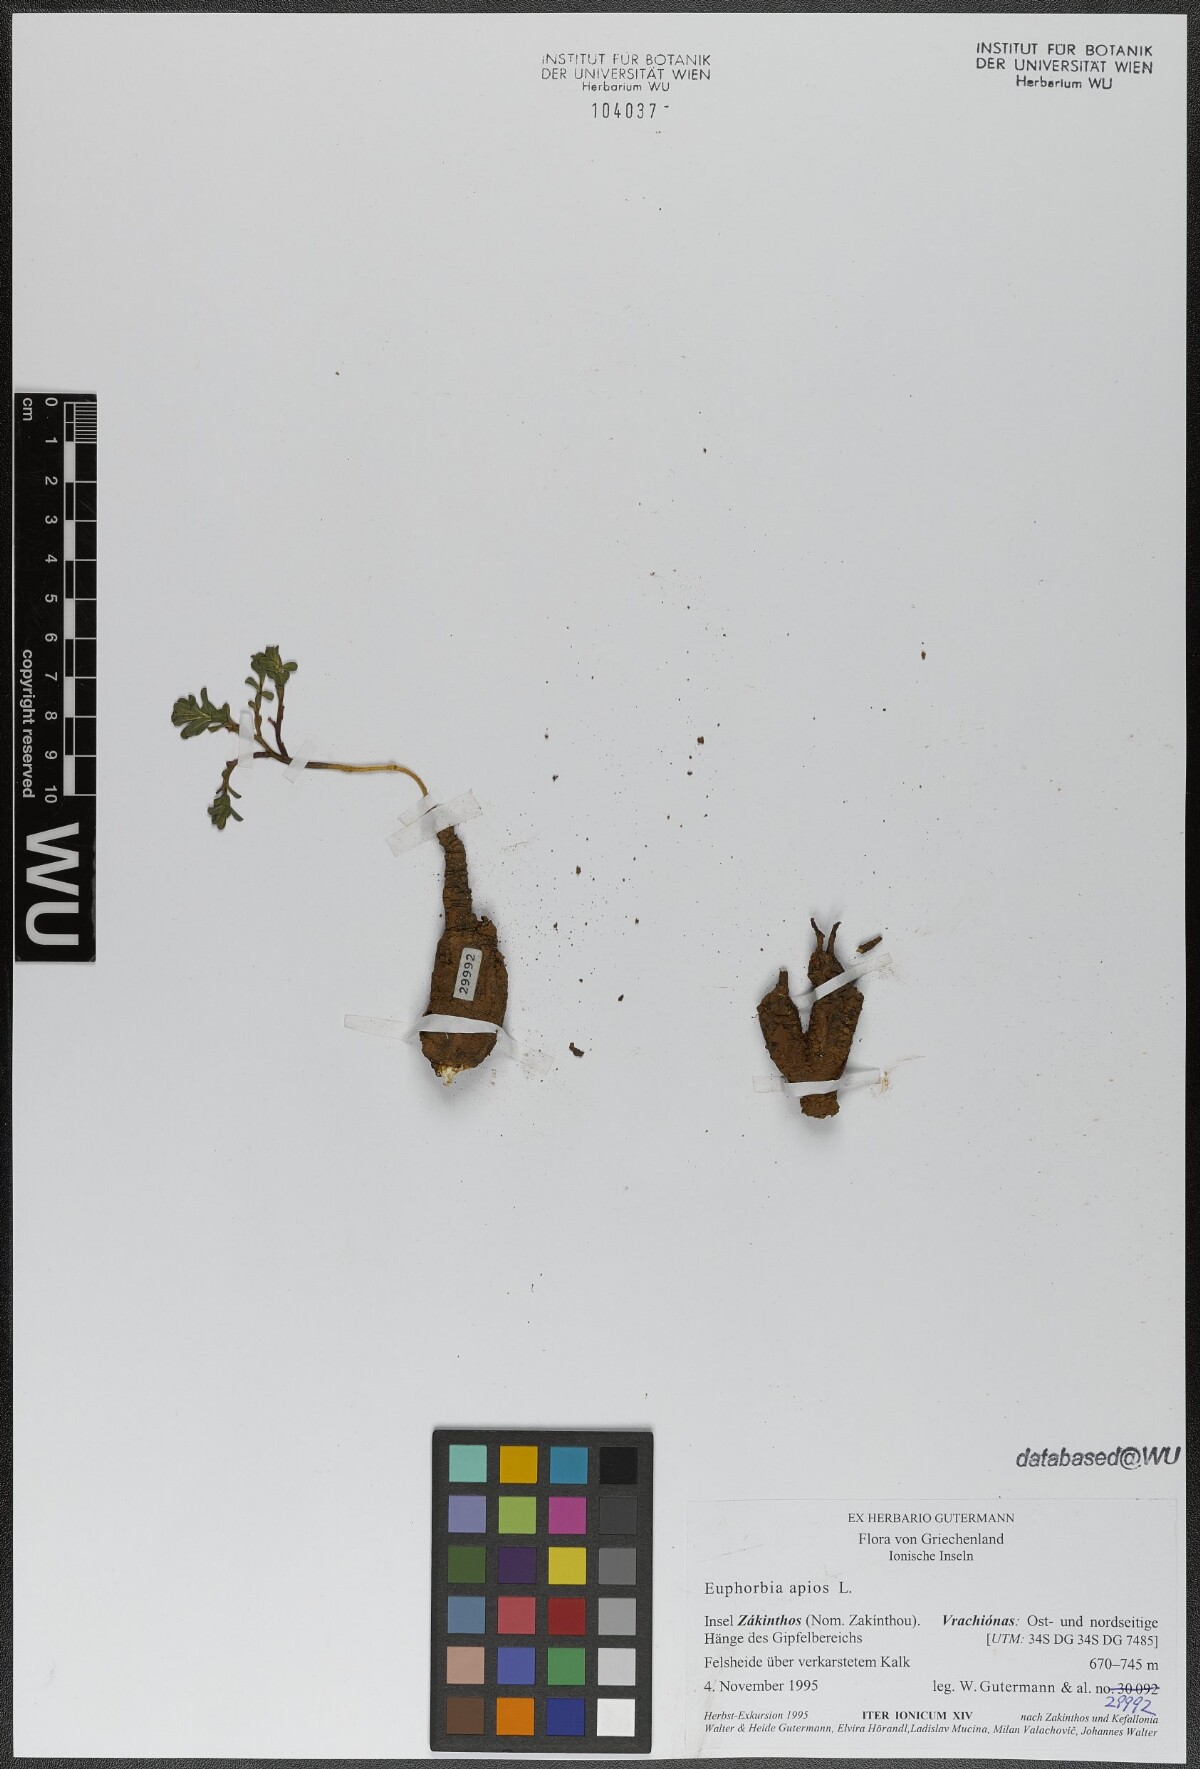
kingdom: Plantae
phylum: Tracheophyta
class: Magnoliopsida
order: Malpighiales
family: Euphorbiaceae
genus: Euphorbia
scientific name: Euphorbia apios
